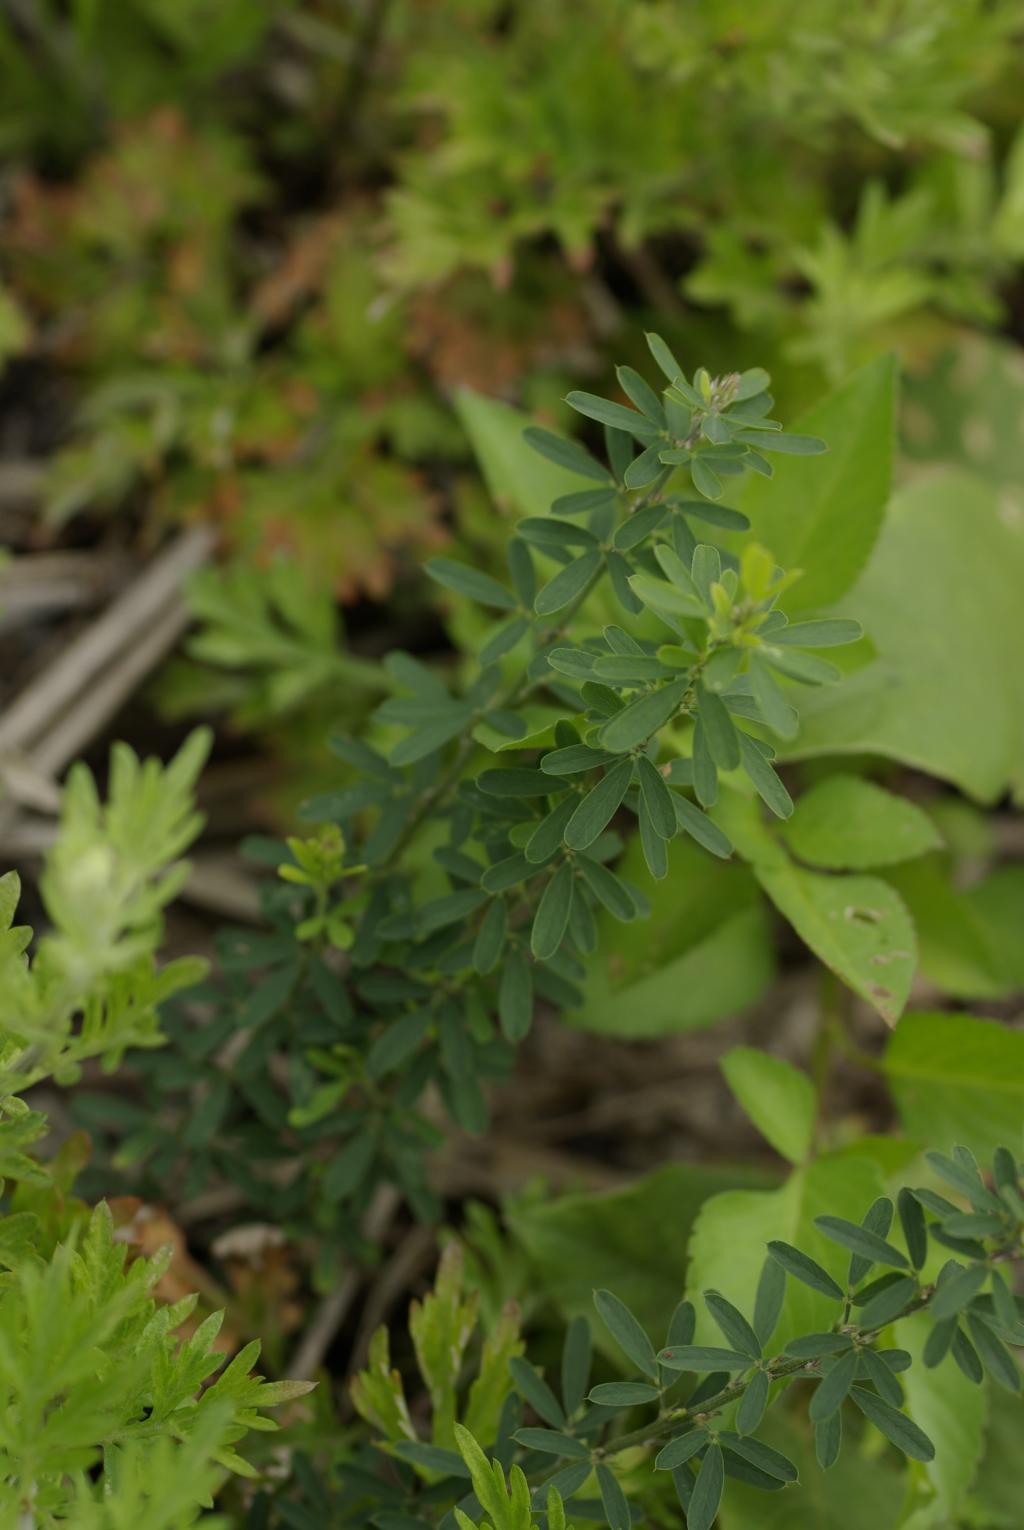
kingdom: Plantae
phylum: Tracheophyta
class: Magnoliopsida
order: Fabales
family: Fabaceae
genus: Lespedeza
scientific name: Lespedeza cuneata
